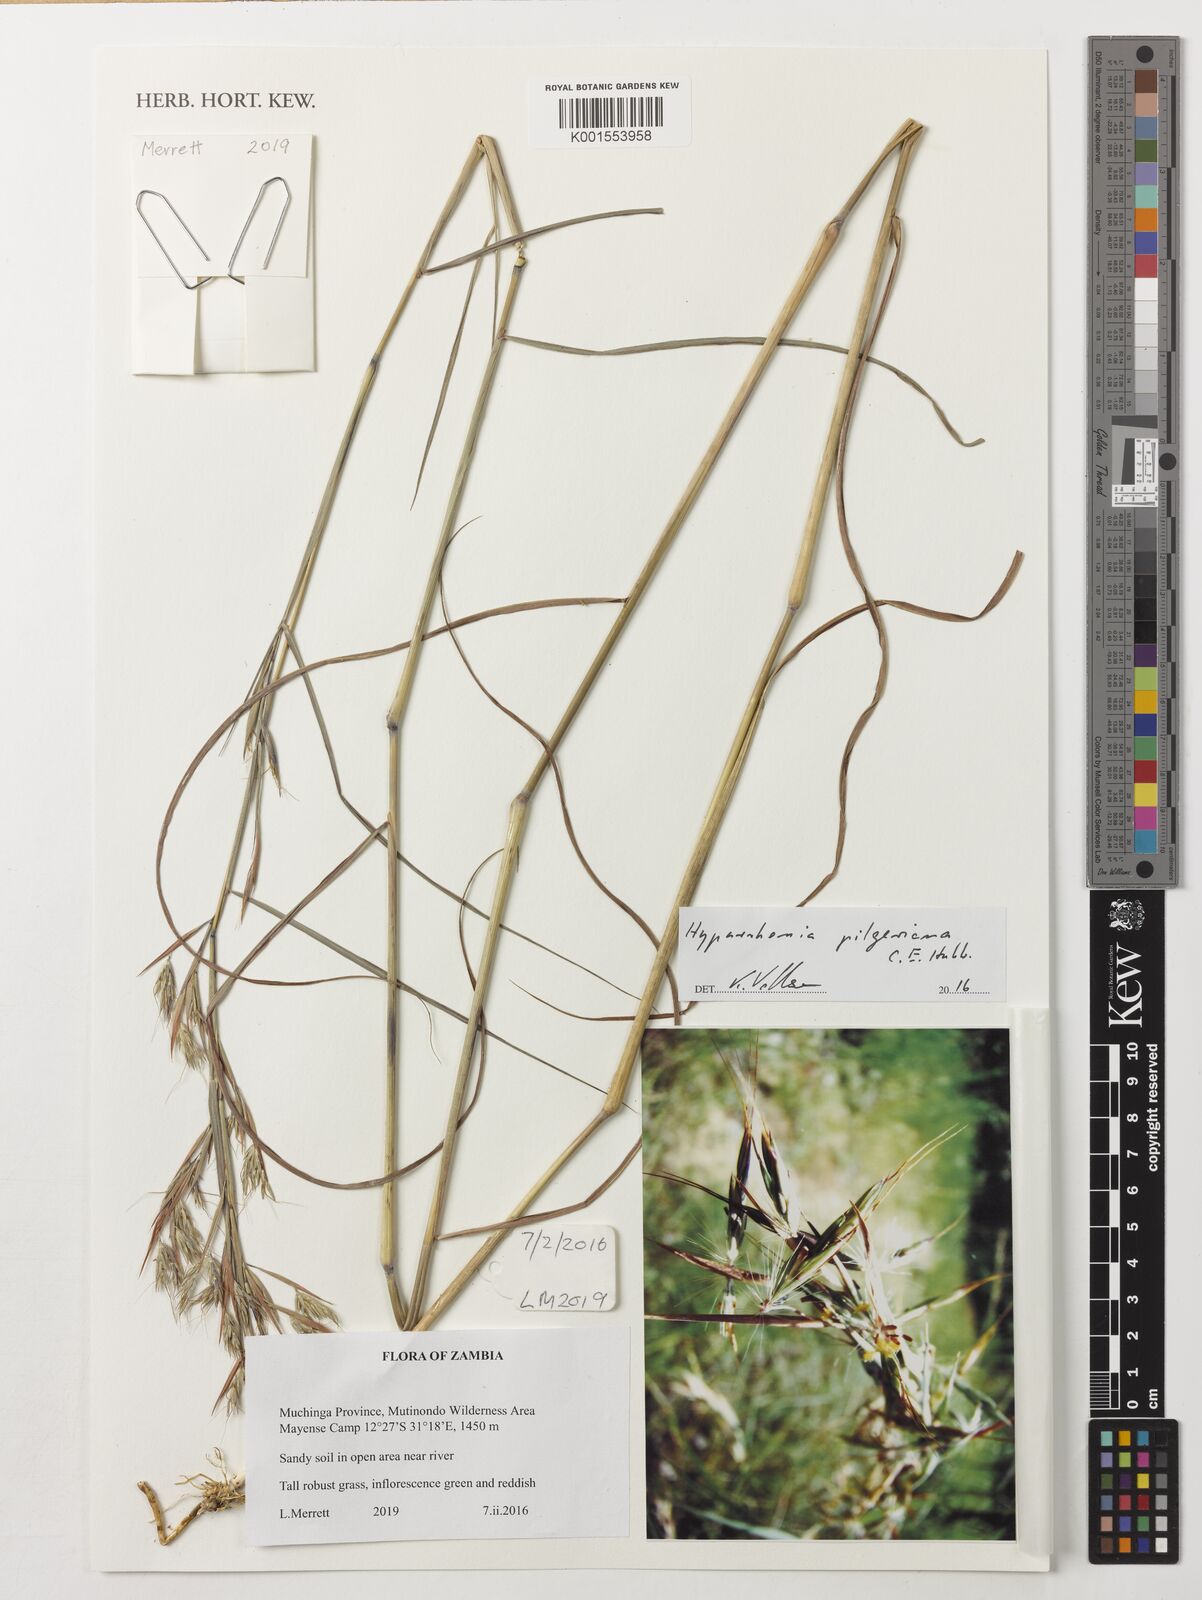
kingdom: Plantae
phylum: Tracheophyta
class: Liliopsida
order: Poales
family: Poaceae
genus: Hyparrhenia
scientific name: Hyparrhenia pilgeriana
